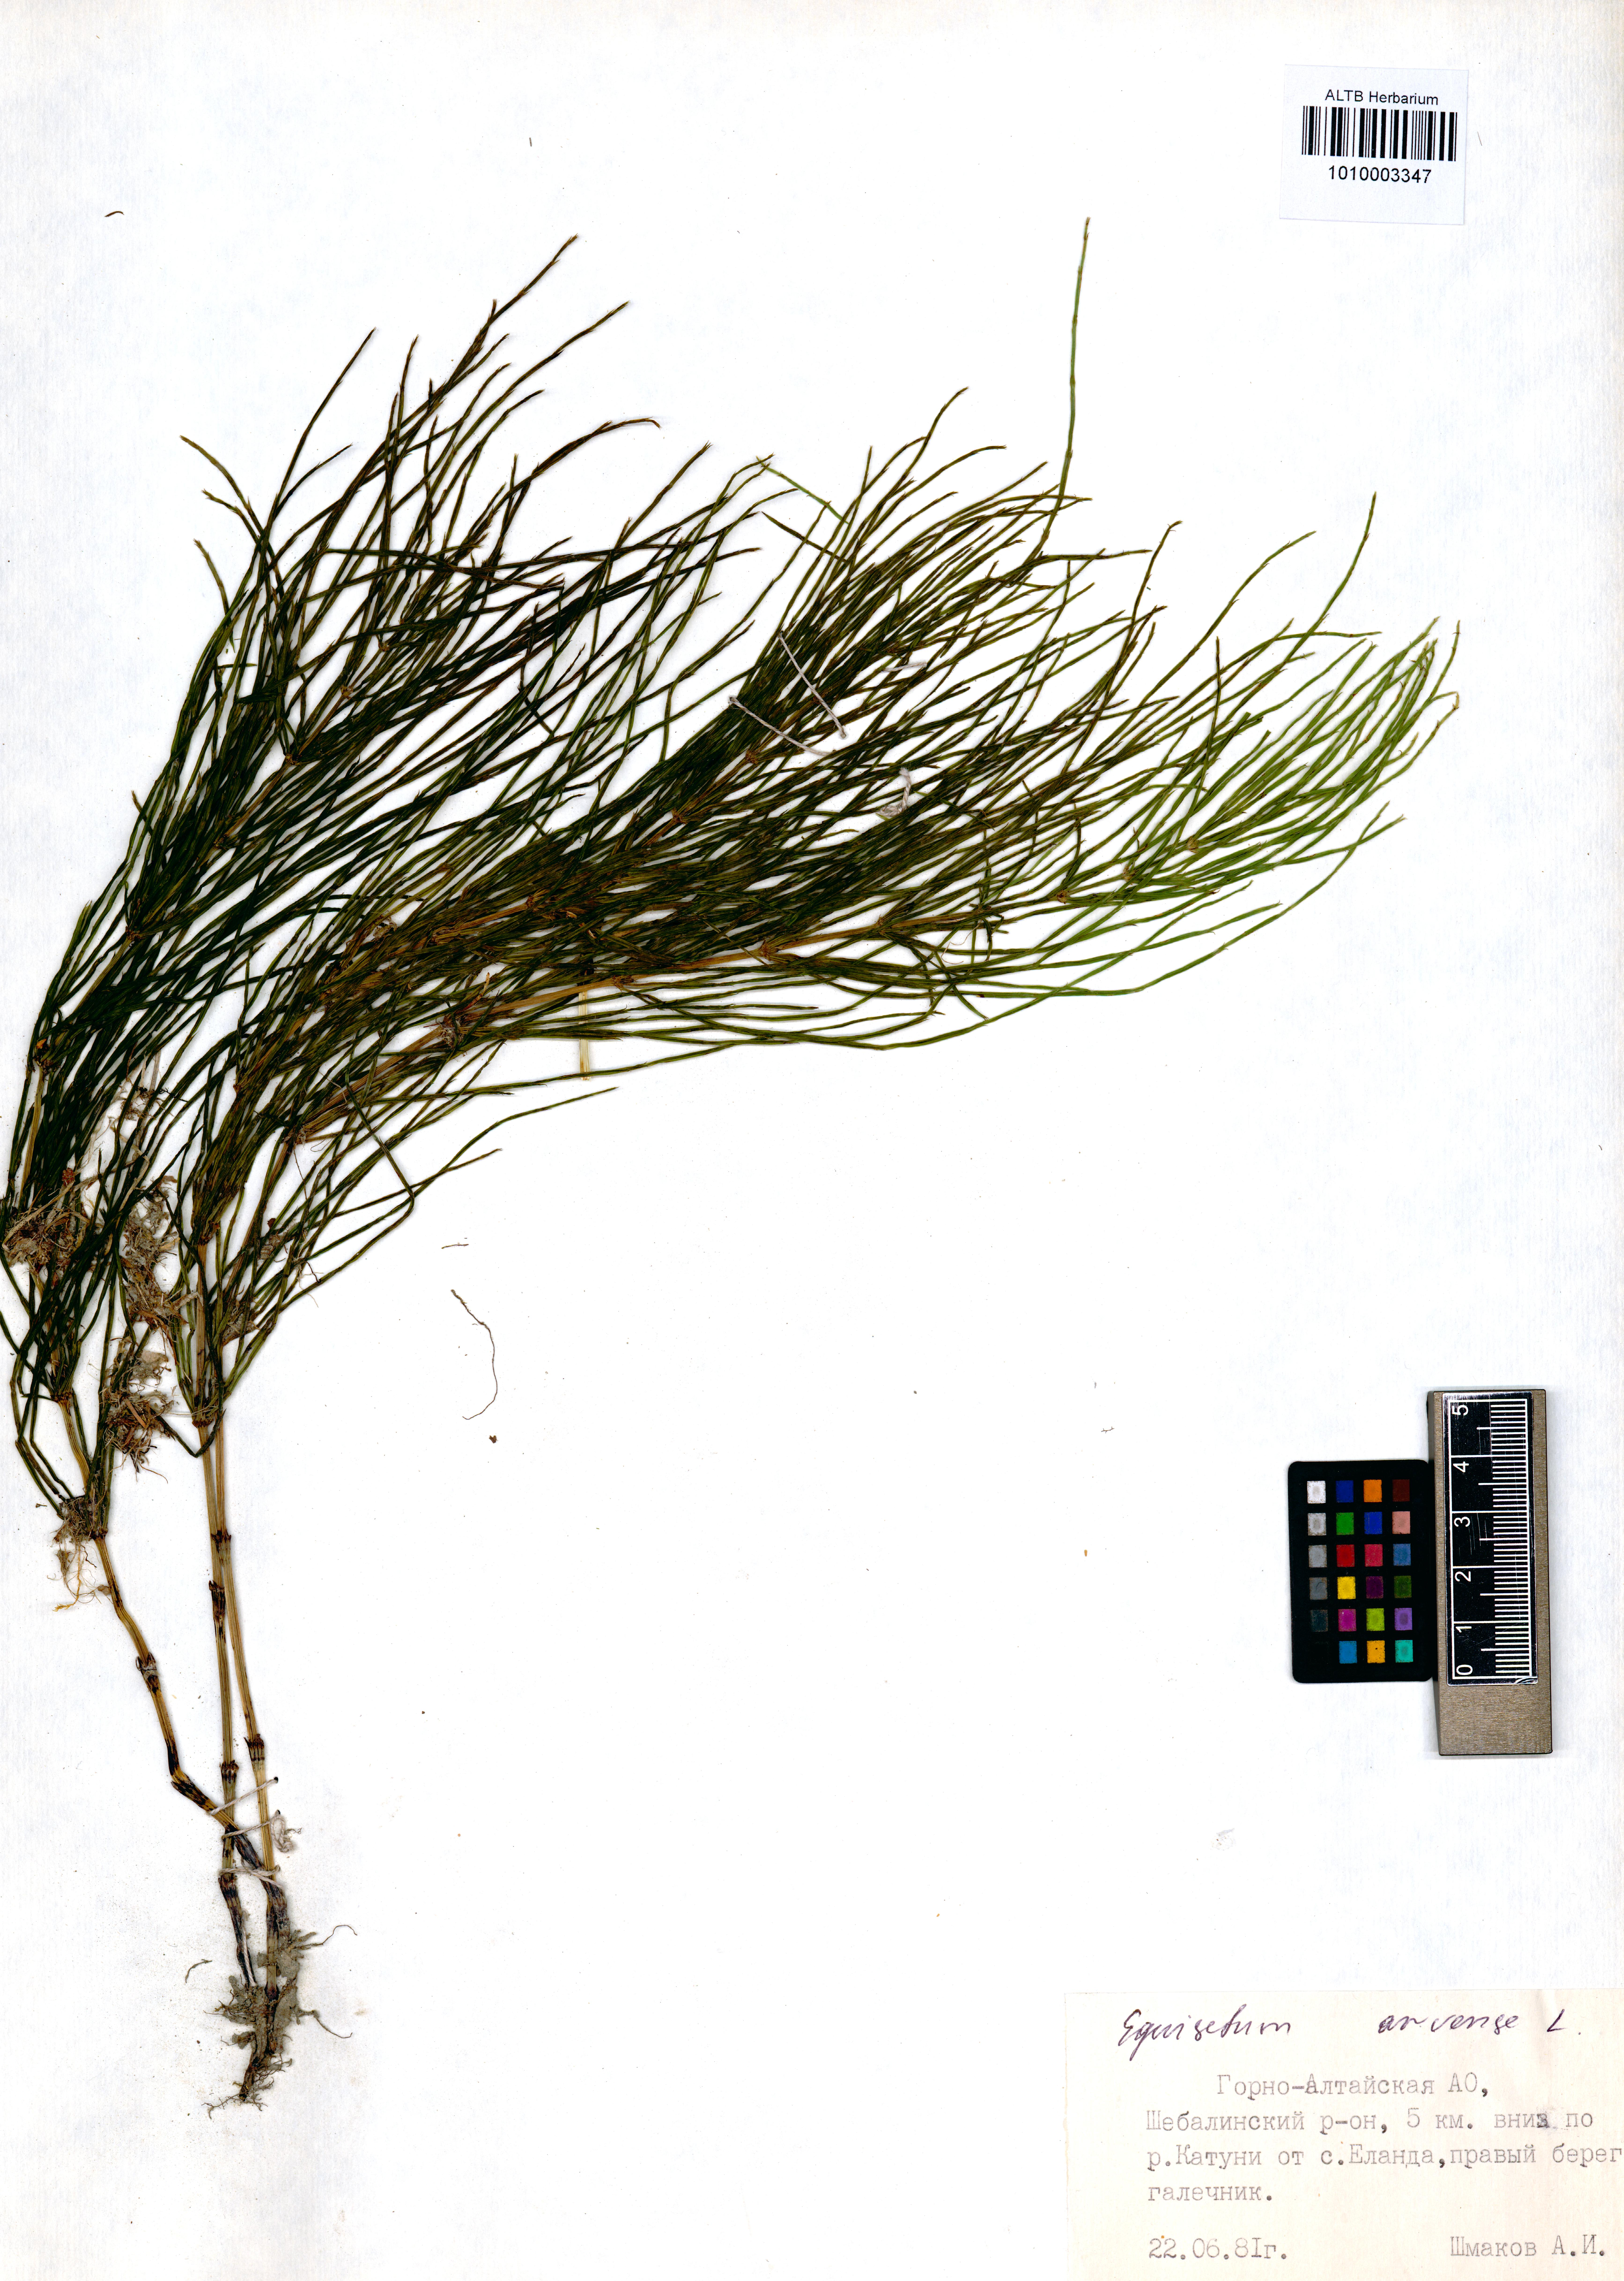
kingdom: Plantae
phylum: Tracheophyta
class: Polypodiopsida
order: Equisetales
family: Equisetaceae
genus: Equisetum
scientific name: Equisetum arvense
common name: Field horsetail
